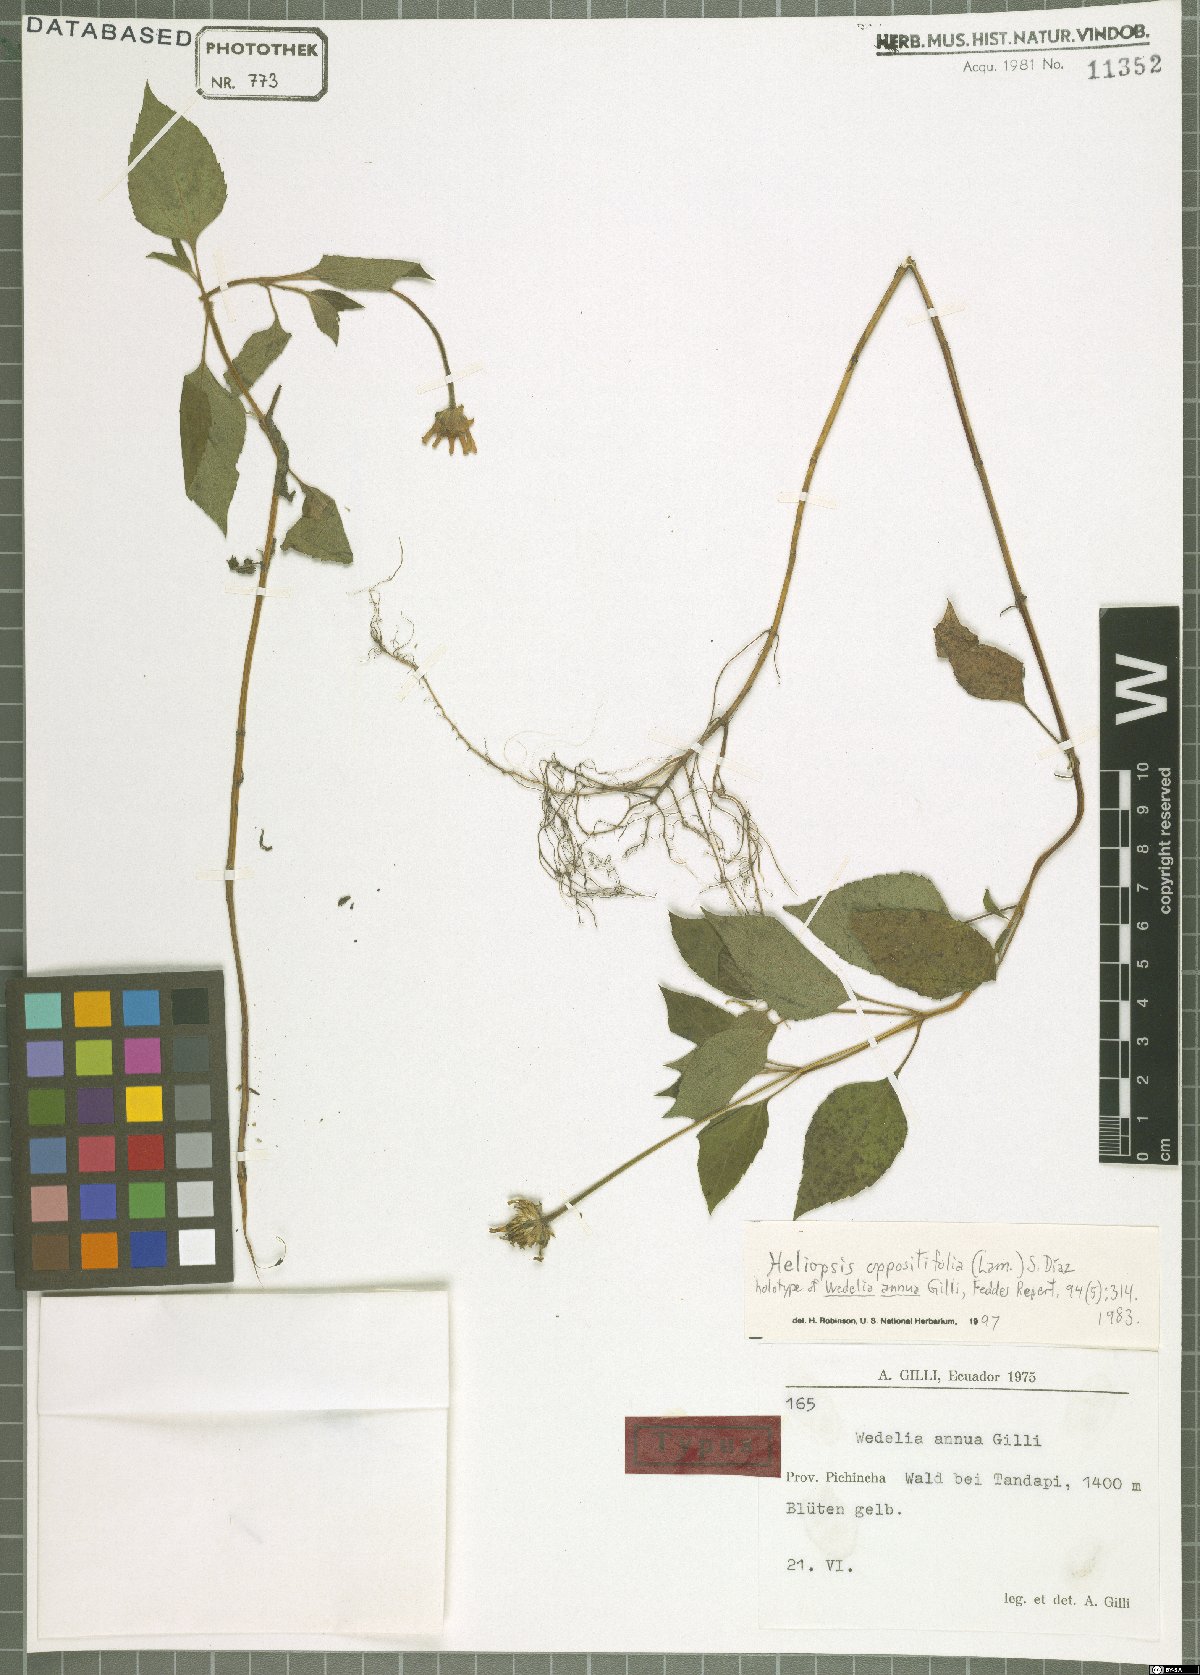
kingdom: Plantae
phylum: Tracheophyta
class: Magnoliopsida
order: Asterales
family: Asteraceae
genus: Heliopsis
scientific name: Heliopsis buphthalmoides
